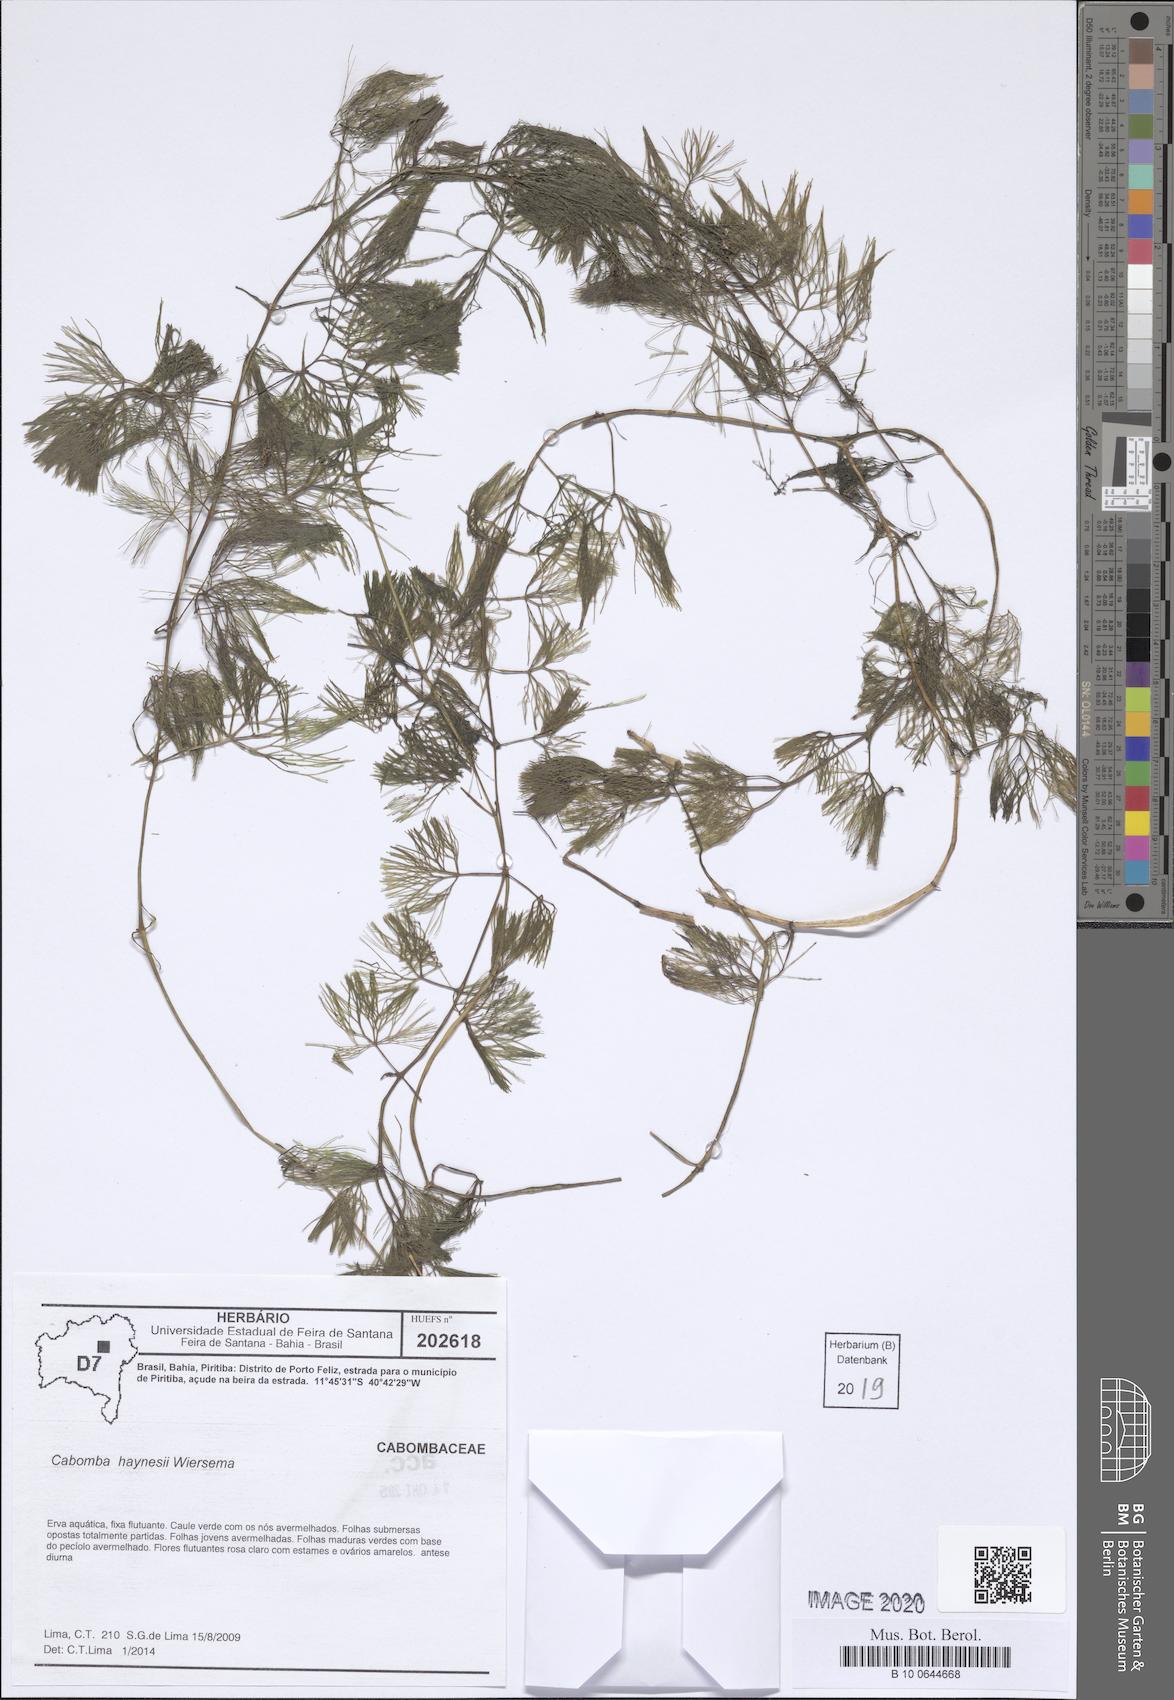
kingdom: Plantae
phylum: Tracheophyta
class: Magnoliopsida
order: Nymphaeales
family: Cabombaceae
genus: Cabomba
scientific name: Cabomba haynesii
